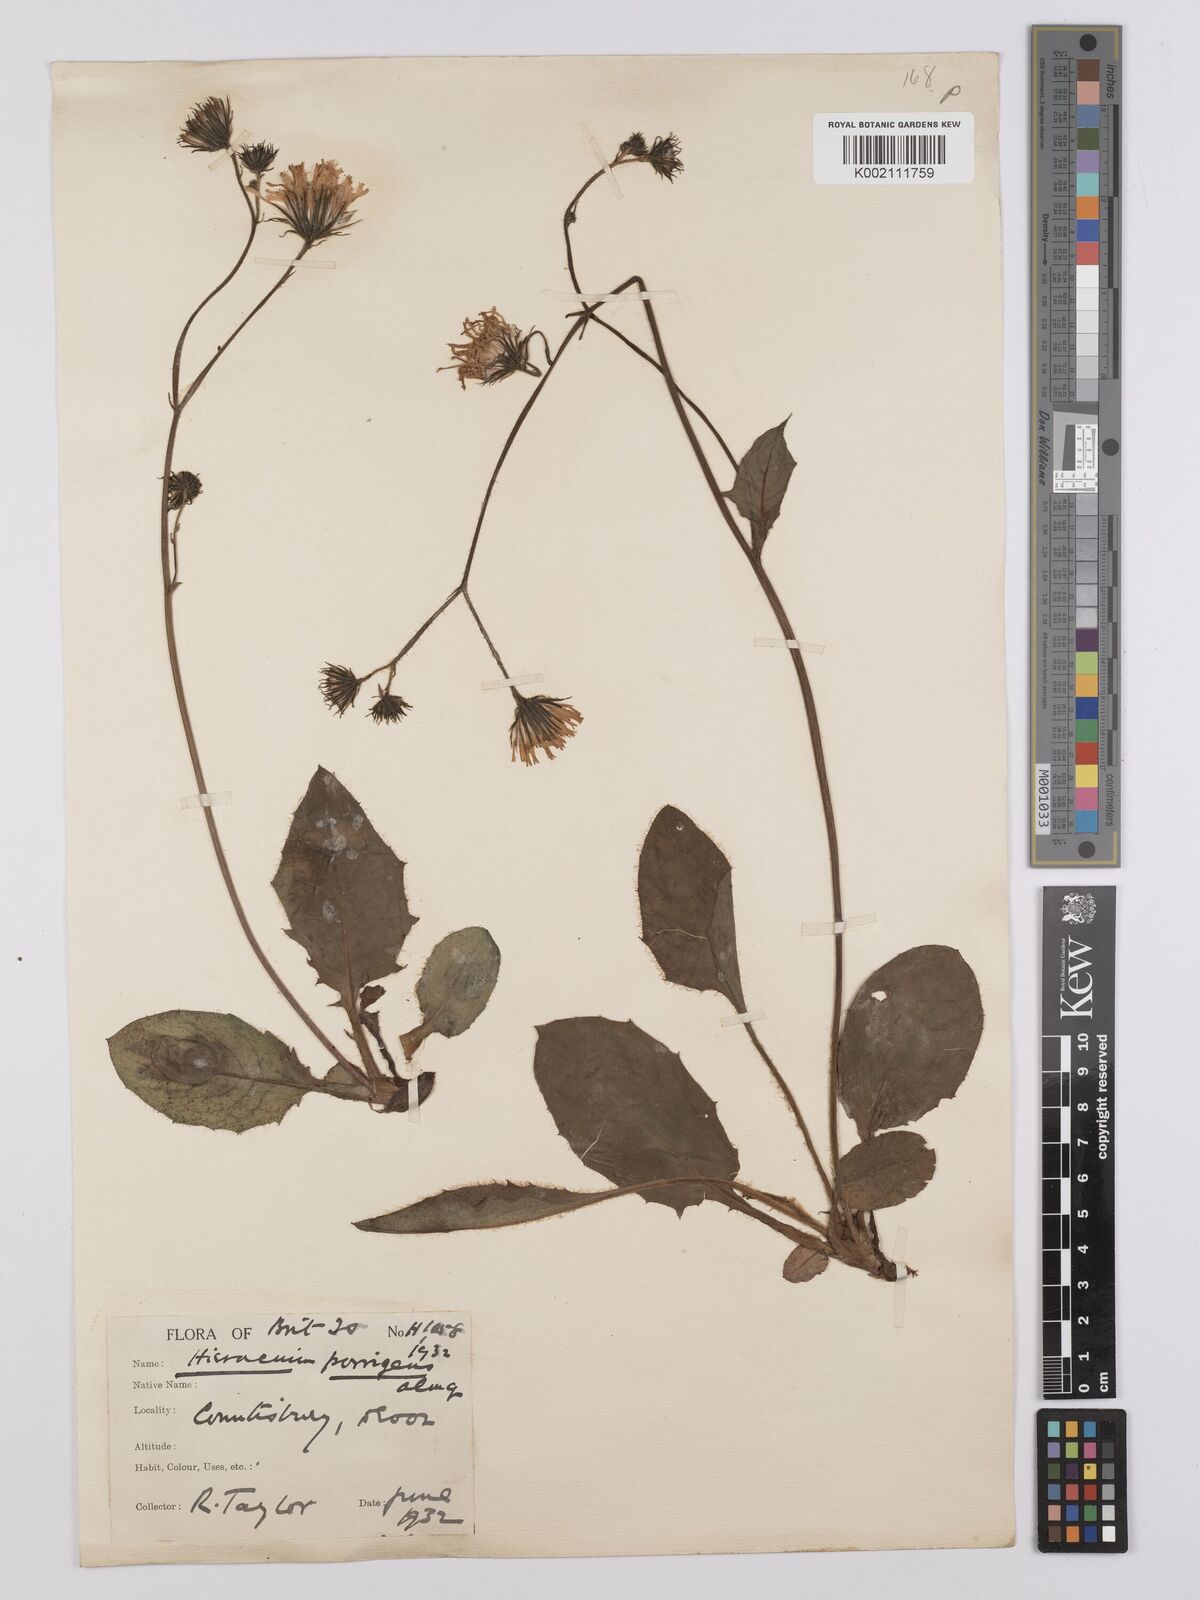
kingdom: Plantae
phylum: Tracheophyta
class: Magnoliopsida
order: Asterales
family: Asteraceae
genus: Hieracium
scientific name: Hieracium lachenalii
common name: Common hawkweed
